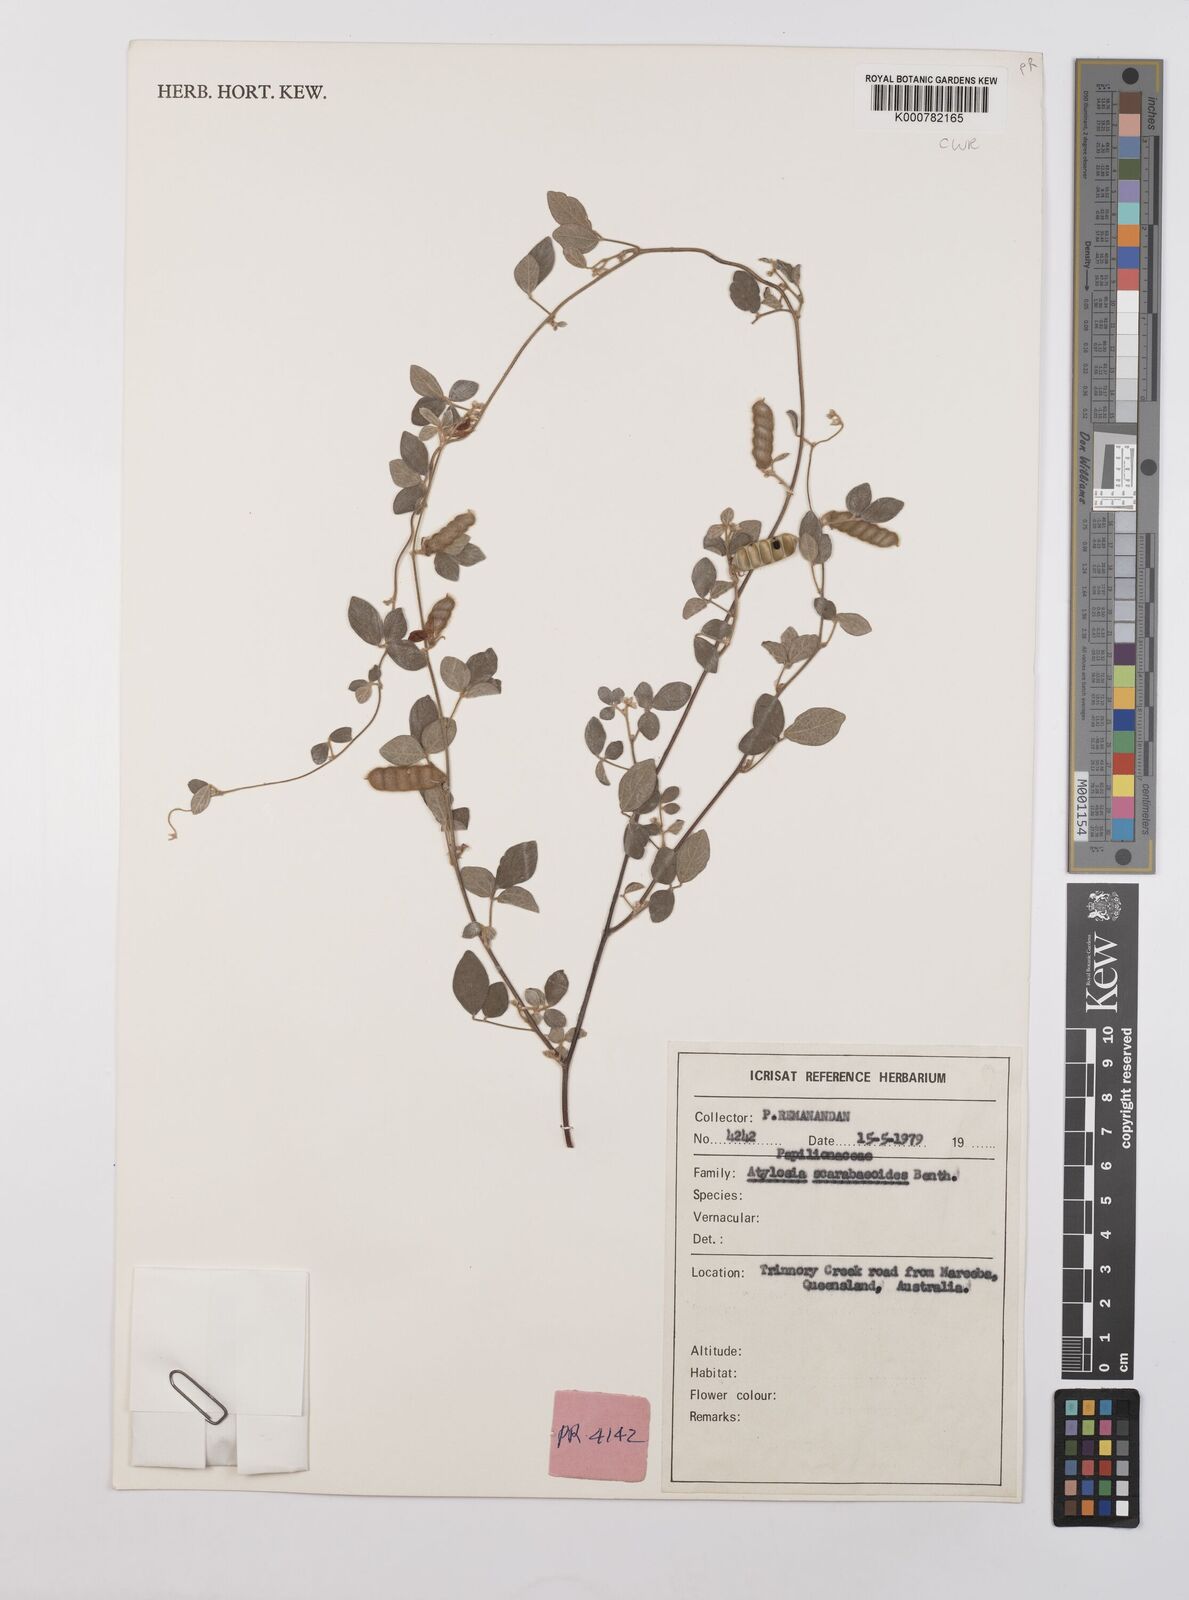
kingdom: Plantae
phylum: Tracheophyta
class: Magnoliopsida
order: Fabales
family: Fabaceae
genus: Cajanus
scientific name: Cajanus scarabaeoides
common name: Showy pigeonpea
